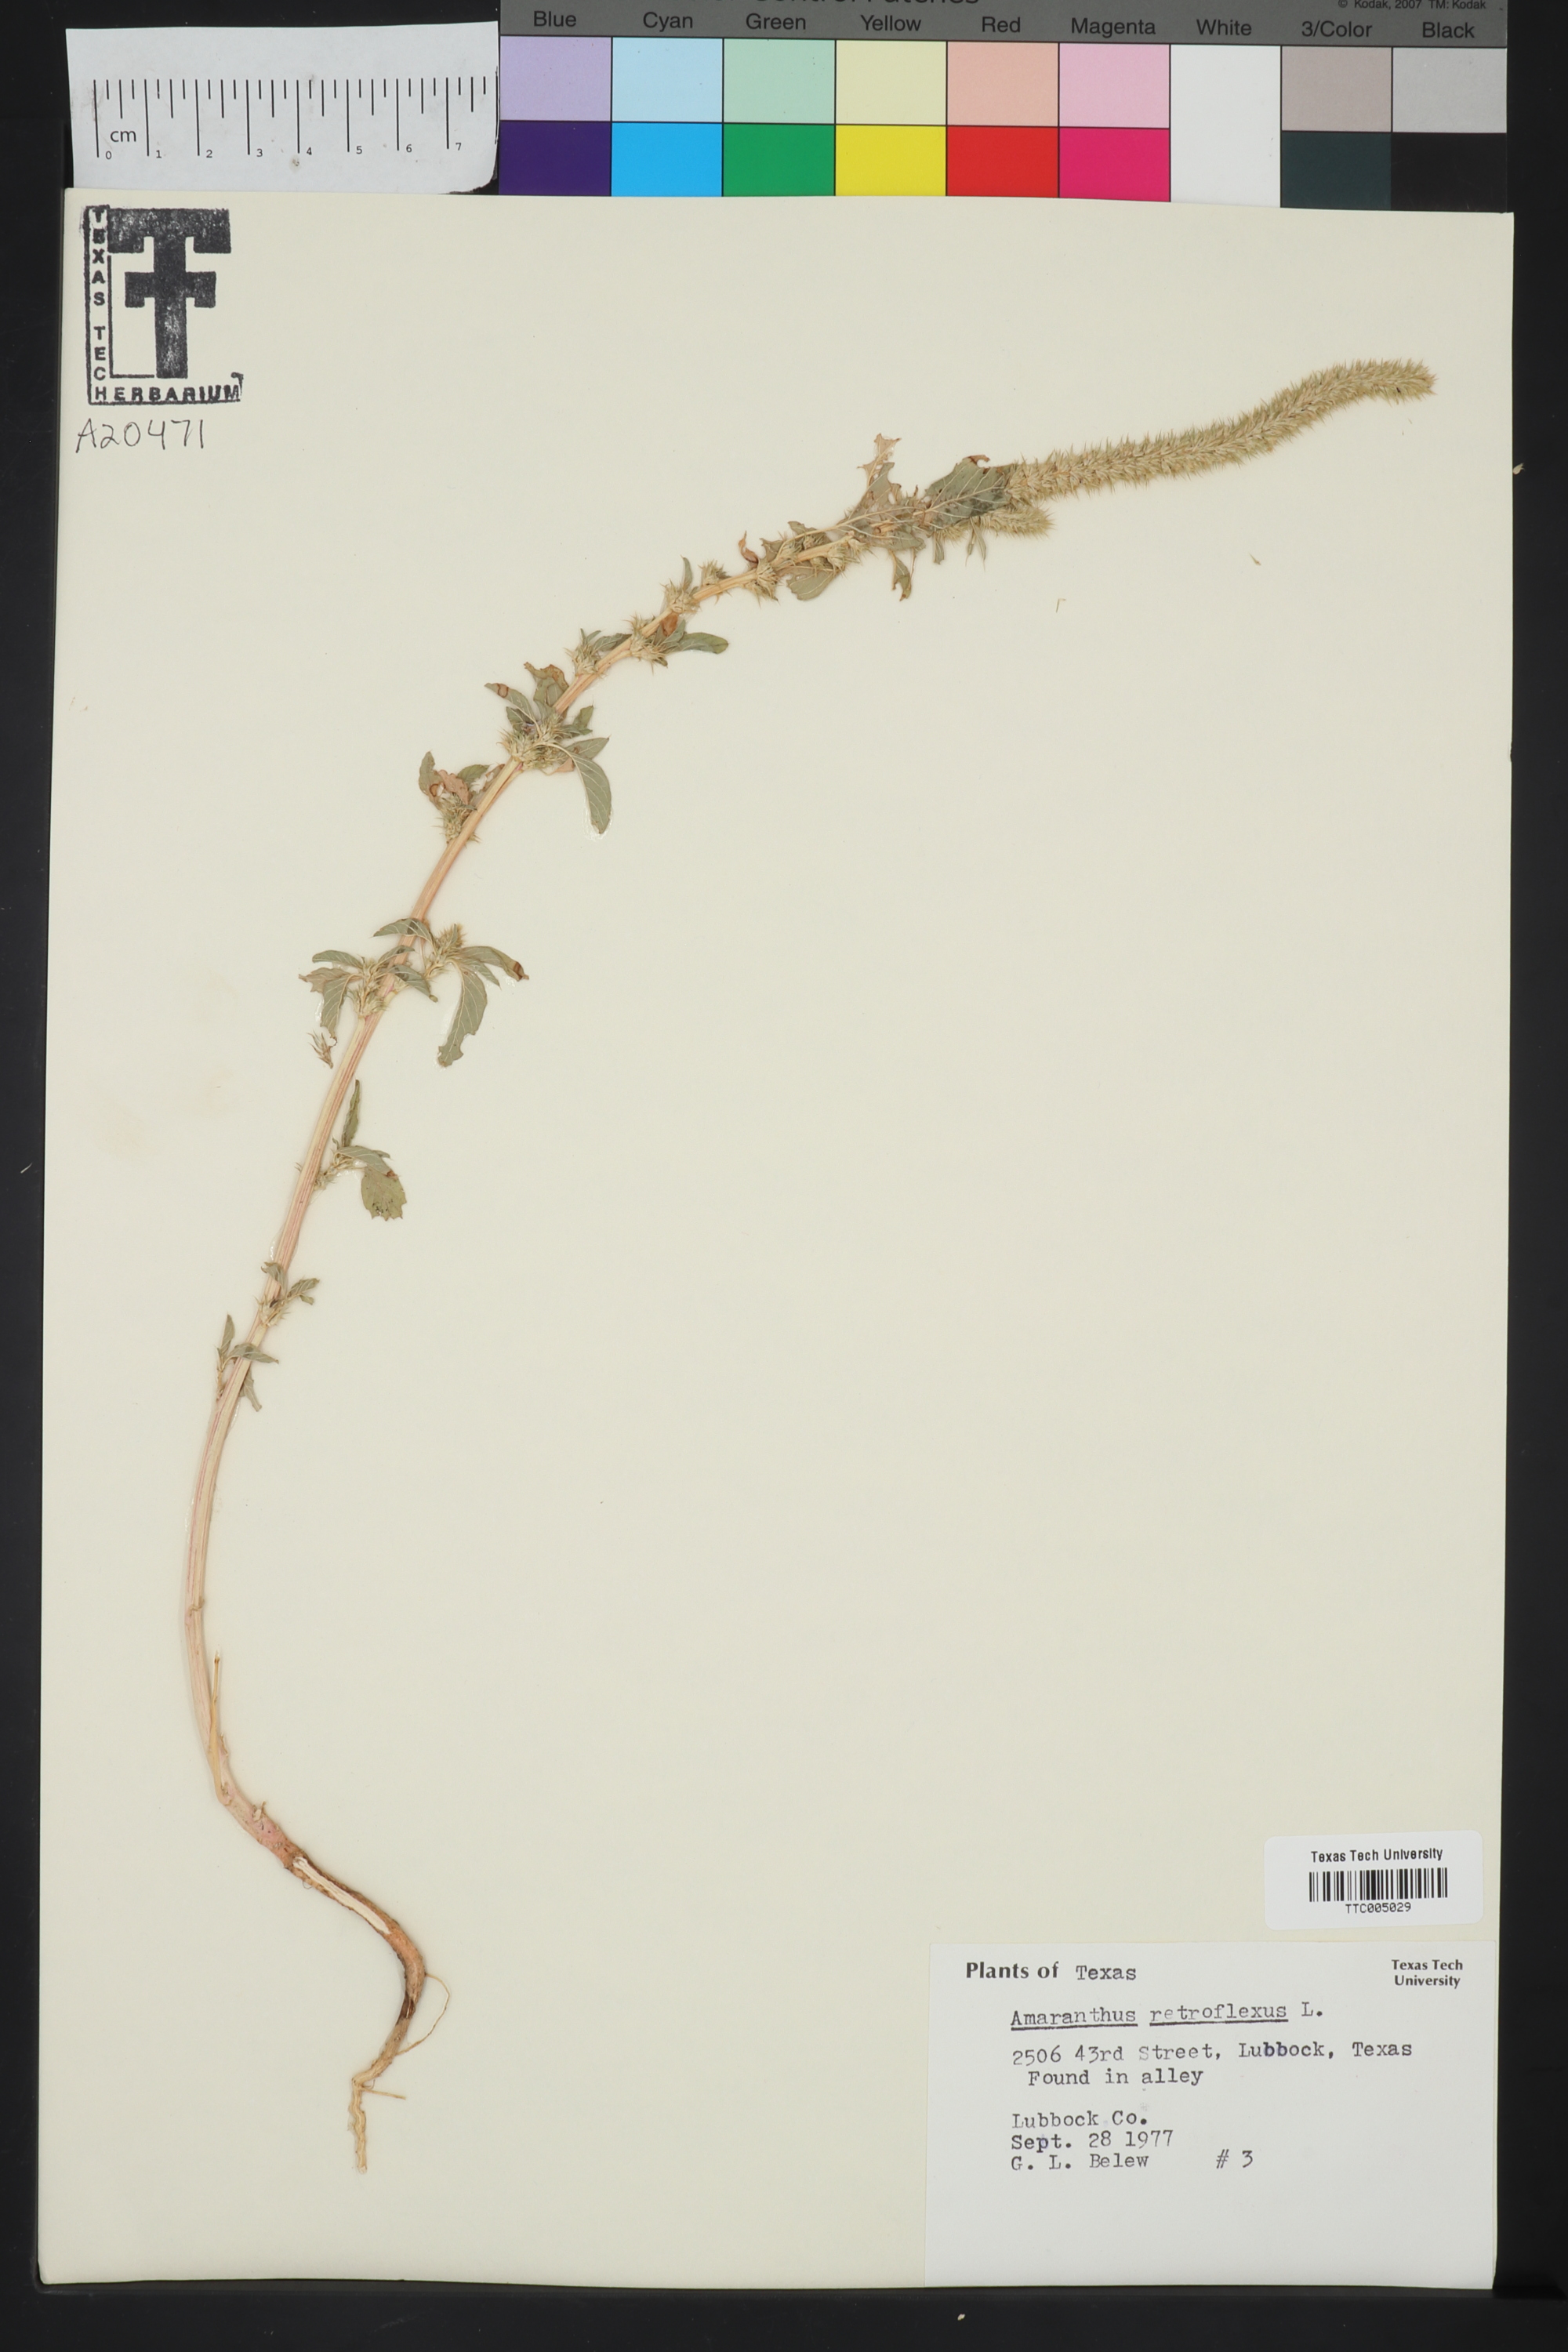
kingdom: Plantae
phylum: Tracheophyta
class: Magnoliopsida
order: Caryophyllales
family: Amaranthaceae
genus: Amaranthus
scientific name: Amaranthus retroflexus
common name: Redroot amaranth
